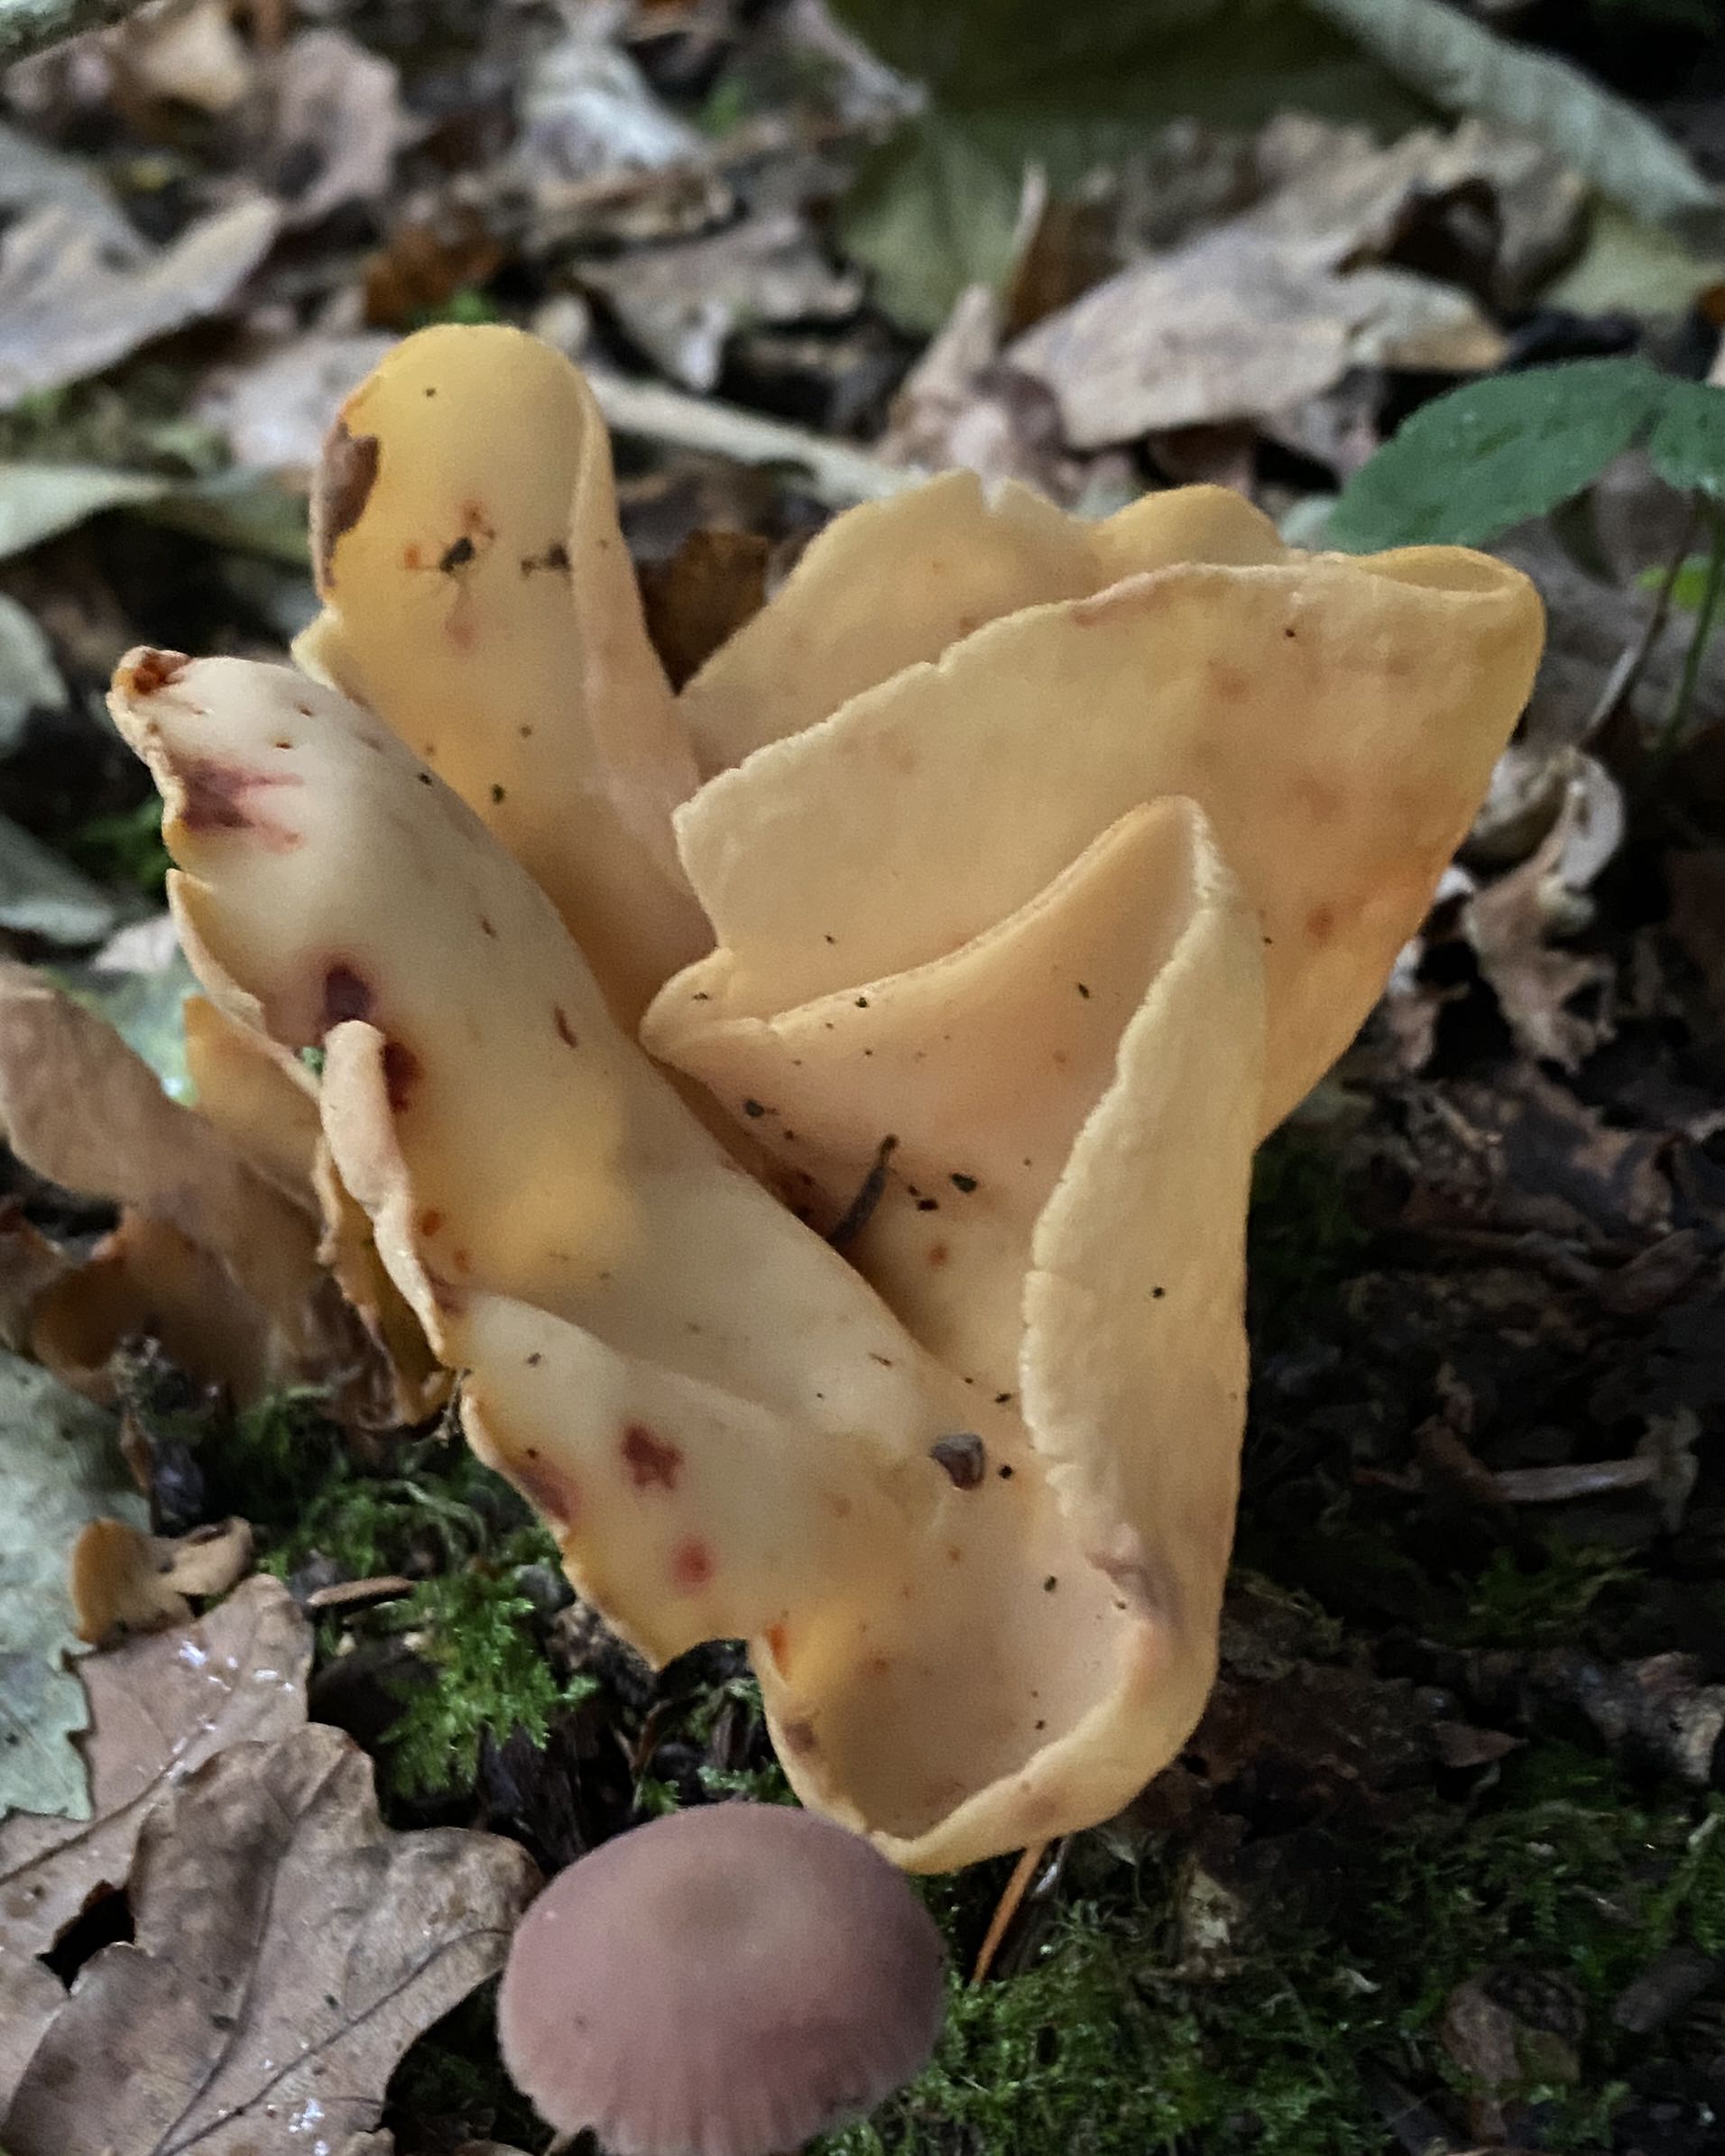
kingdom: Fungi
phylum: Ascomycota
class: Pezizomycetes
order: Pezizales
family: Otideaceae
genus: Otidea
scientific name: Otidea onotica
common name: æsel-ørebæger
